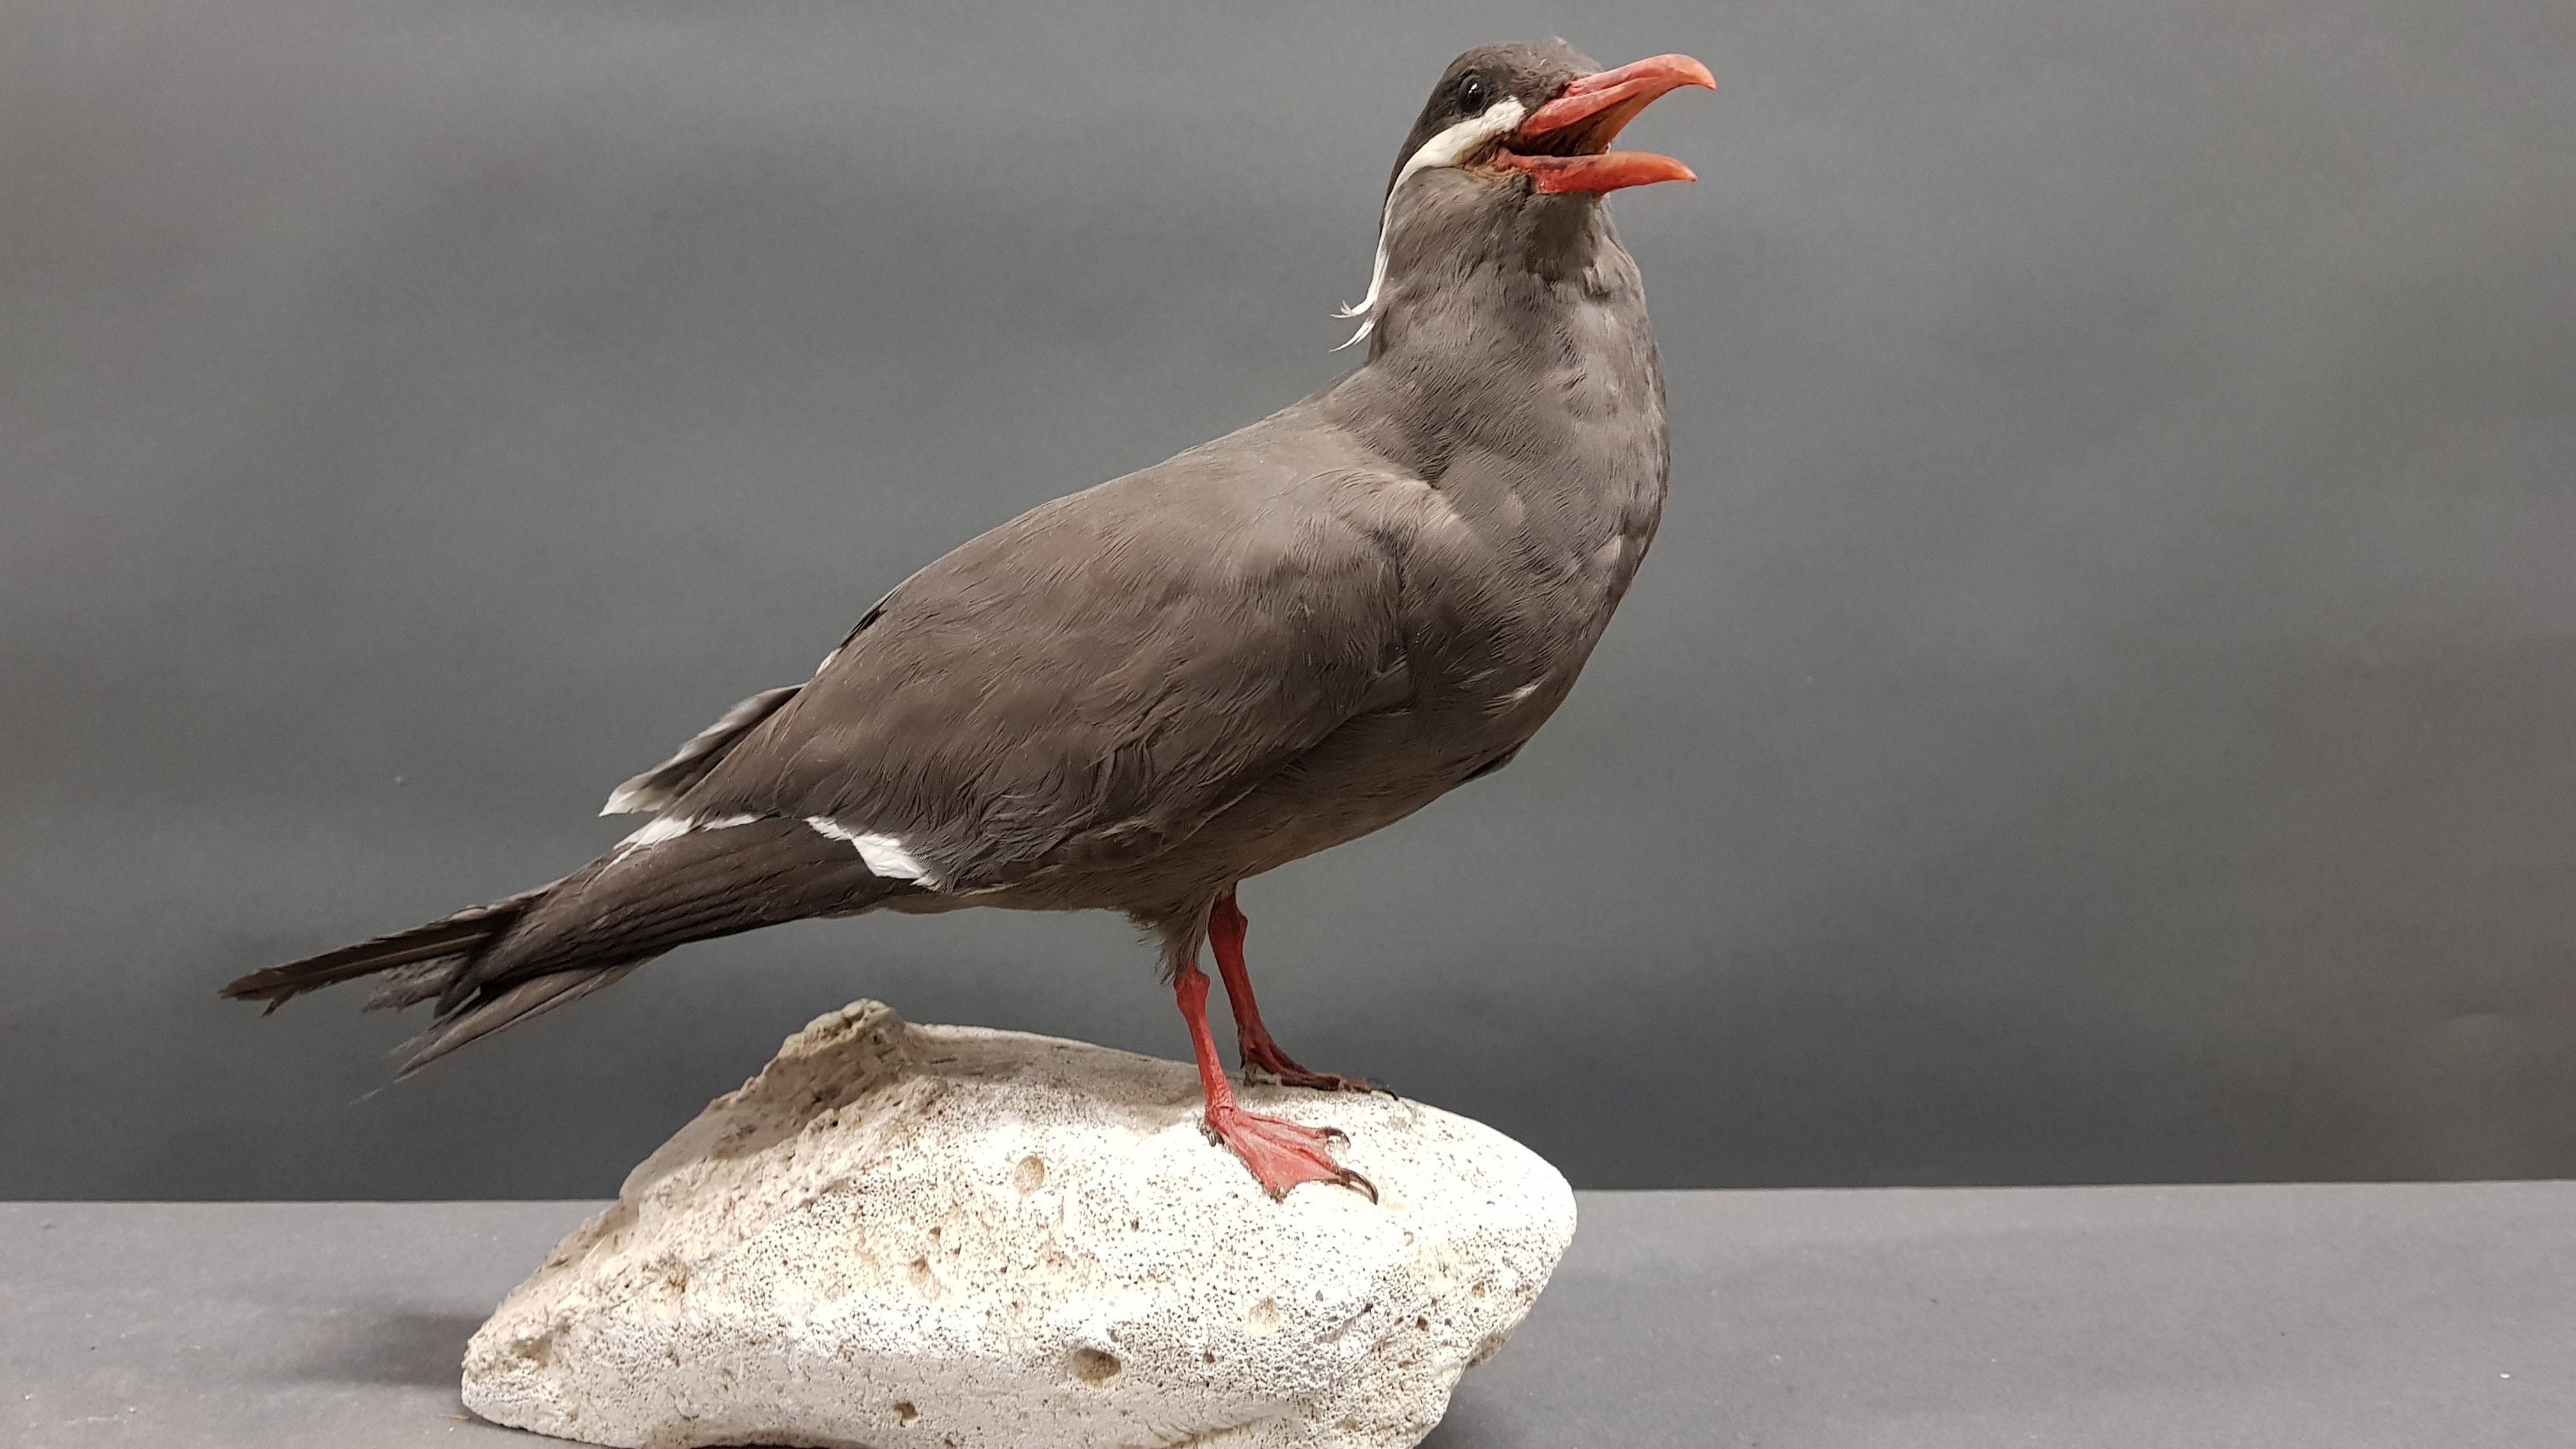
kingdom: Animalia
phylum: Chordata
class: Aves
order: Charadriiformes
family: Laridae
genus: Larosterna
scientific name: Larosterna inca
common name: Inca tern
